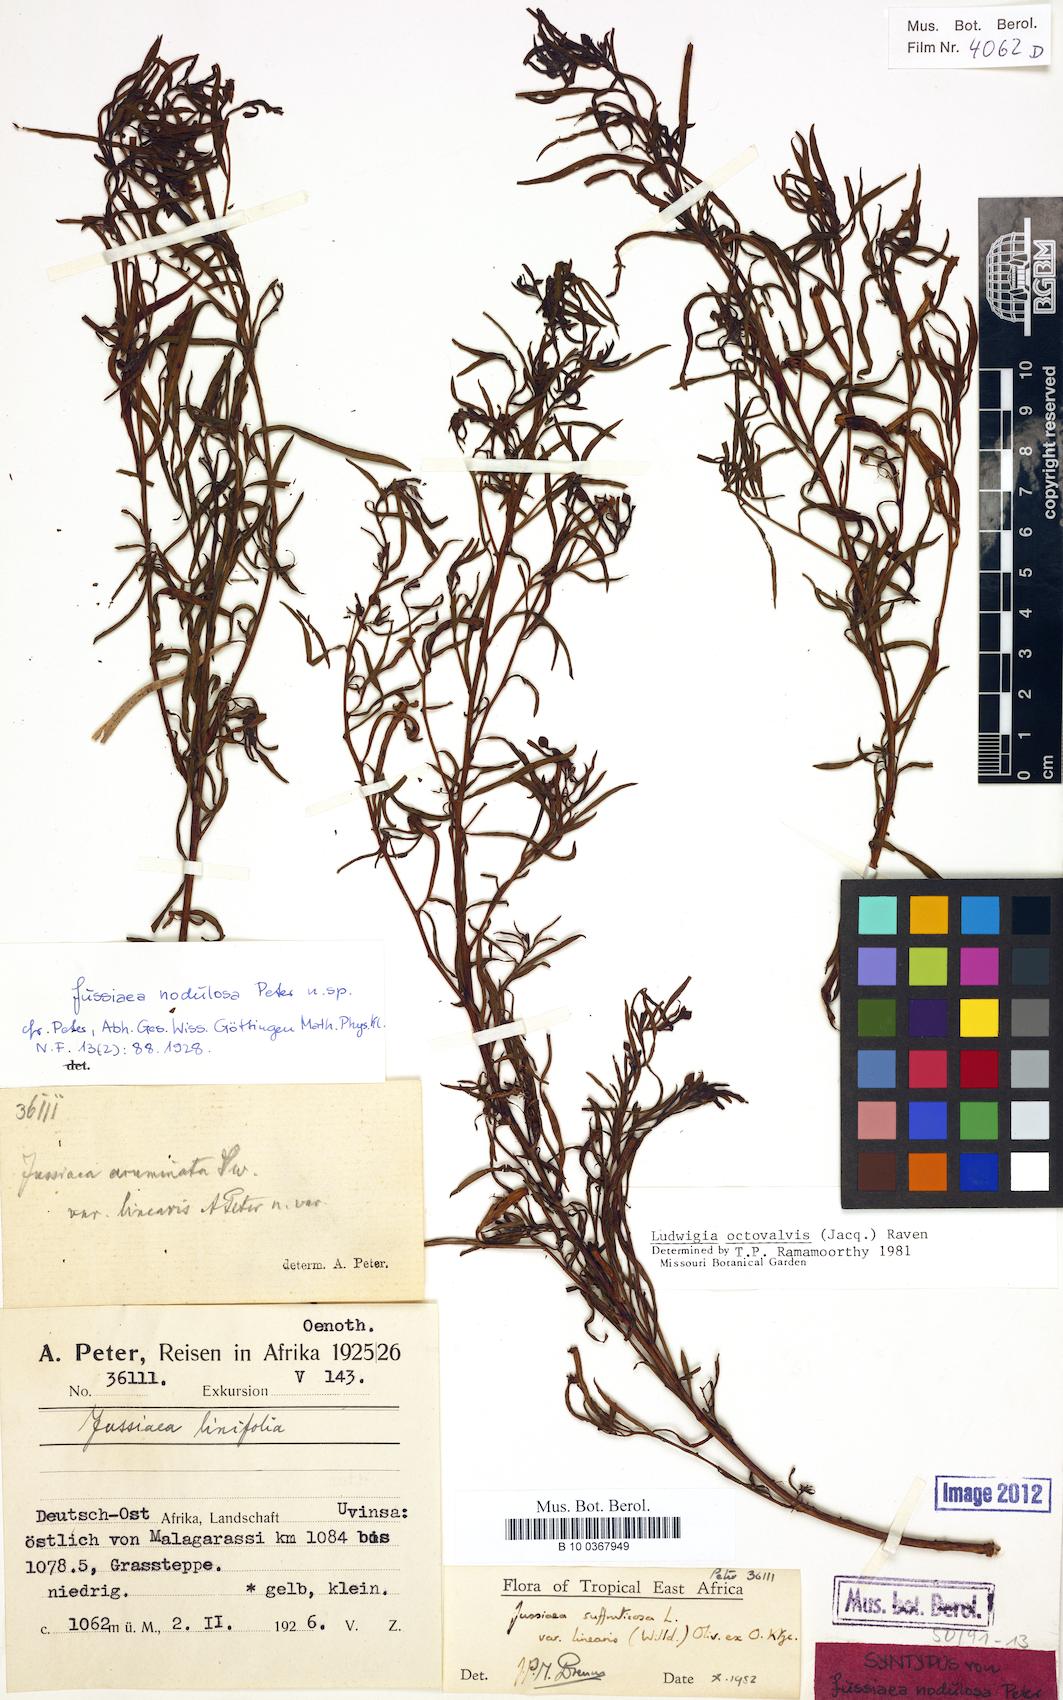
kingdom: Plantae
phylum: Tracheophyta
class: Magnoliopsida
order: Myrtales
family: Onagraceae
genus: Ludwigia
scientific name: Ludwigia octovalvis
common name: Water-primrose
